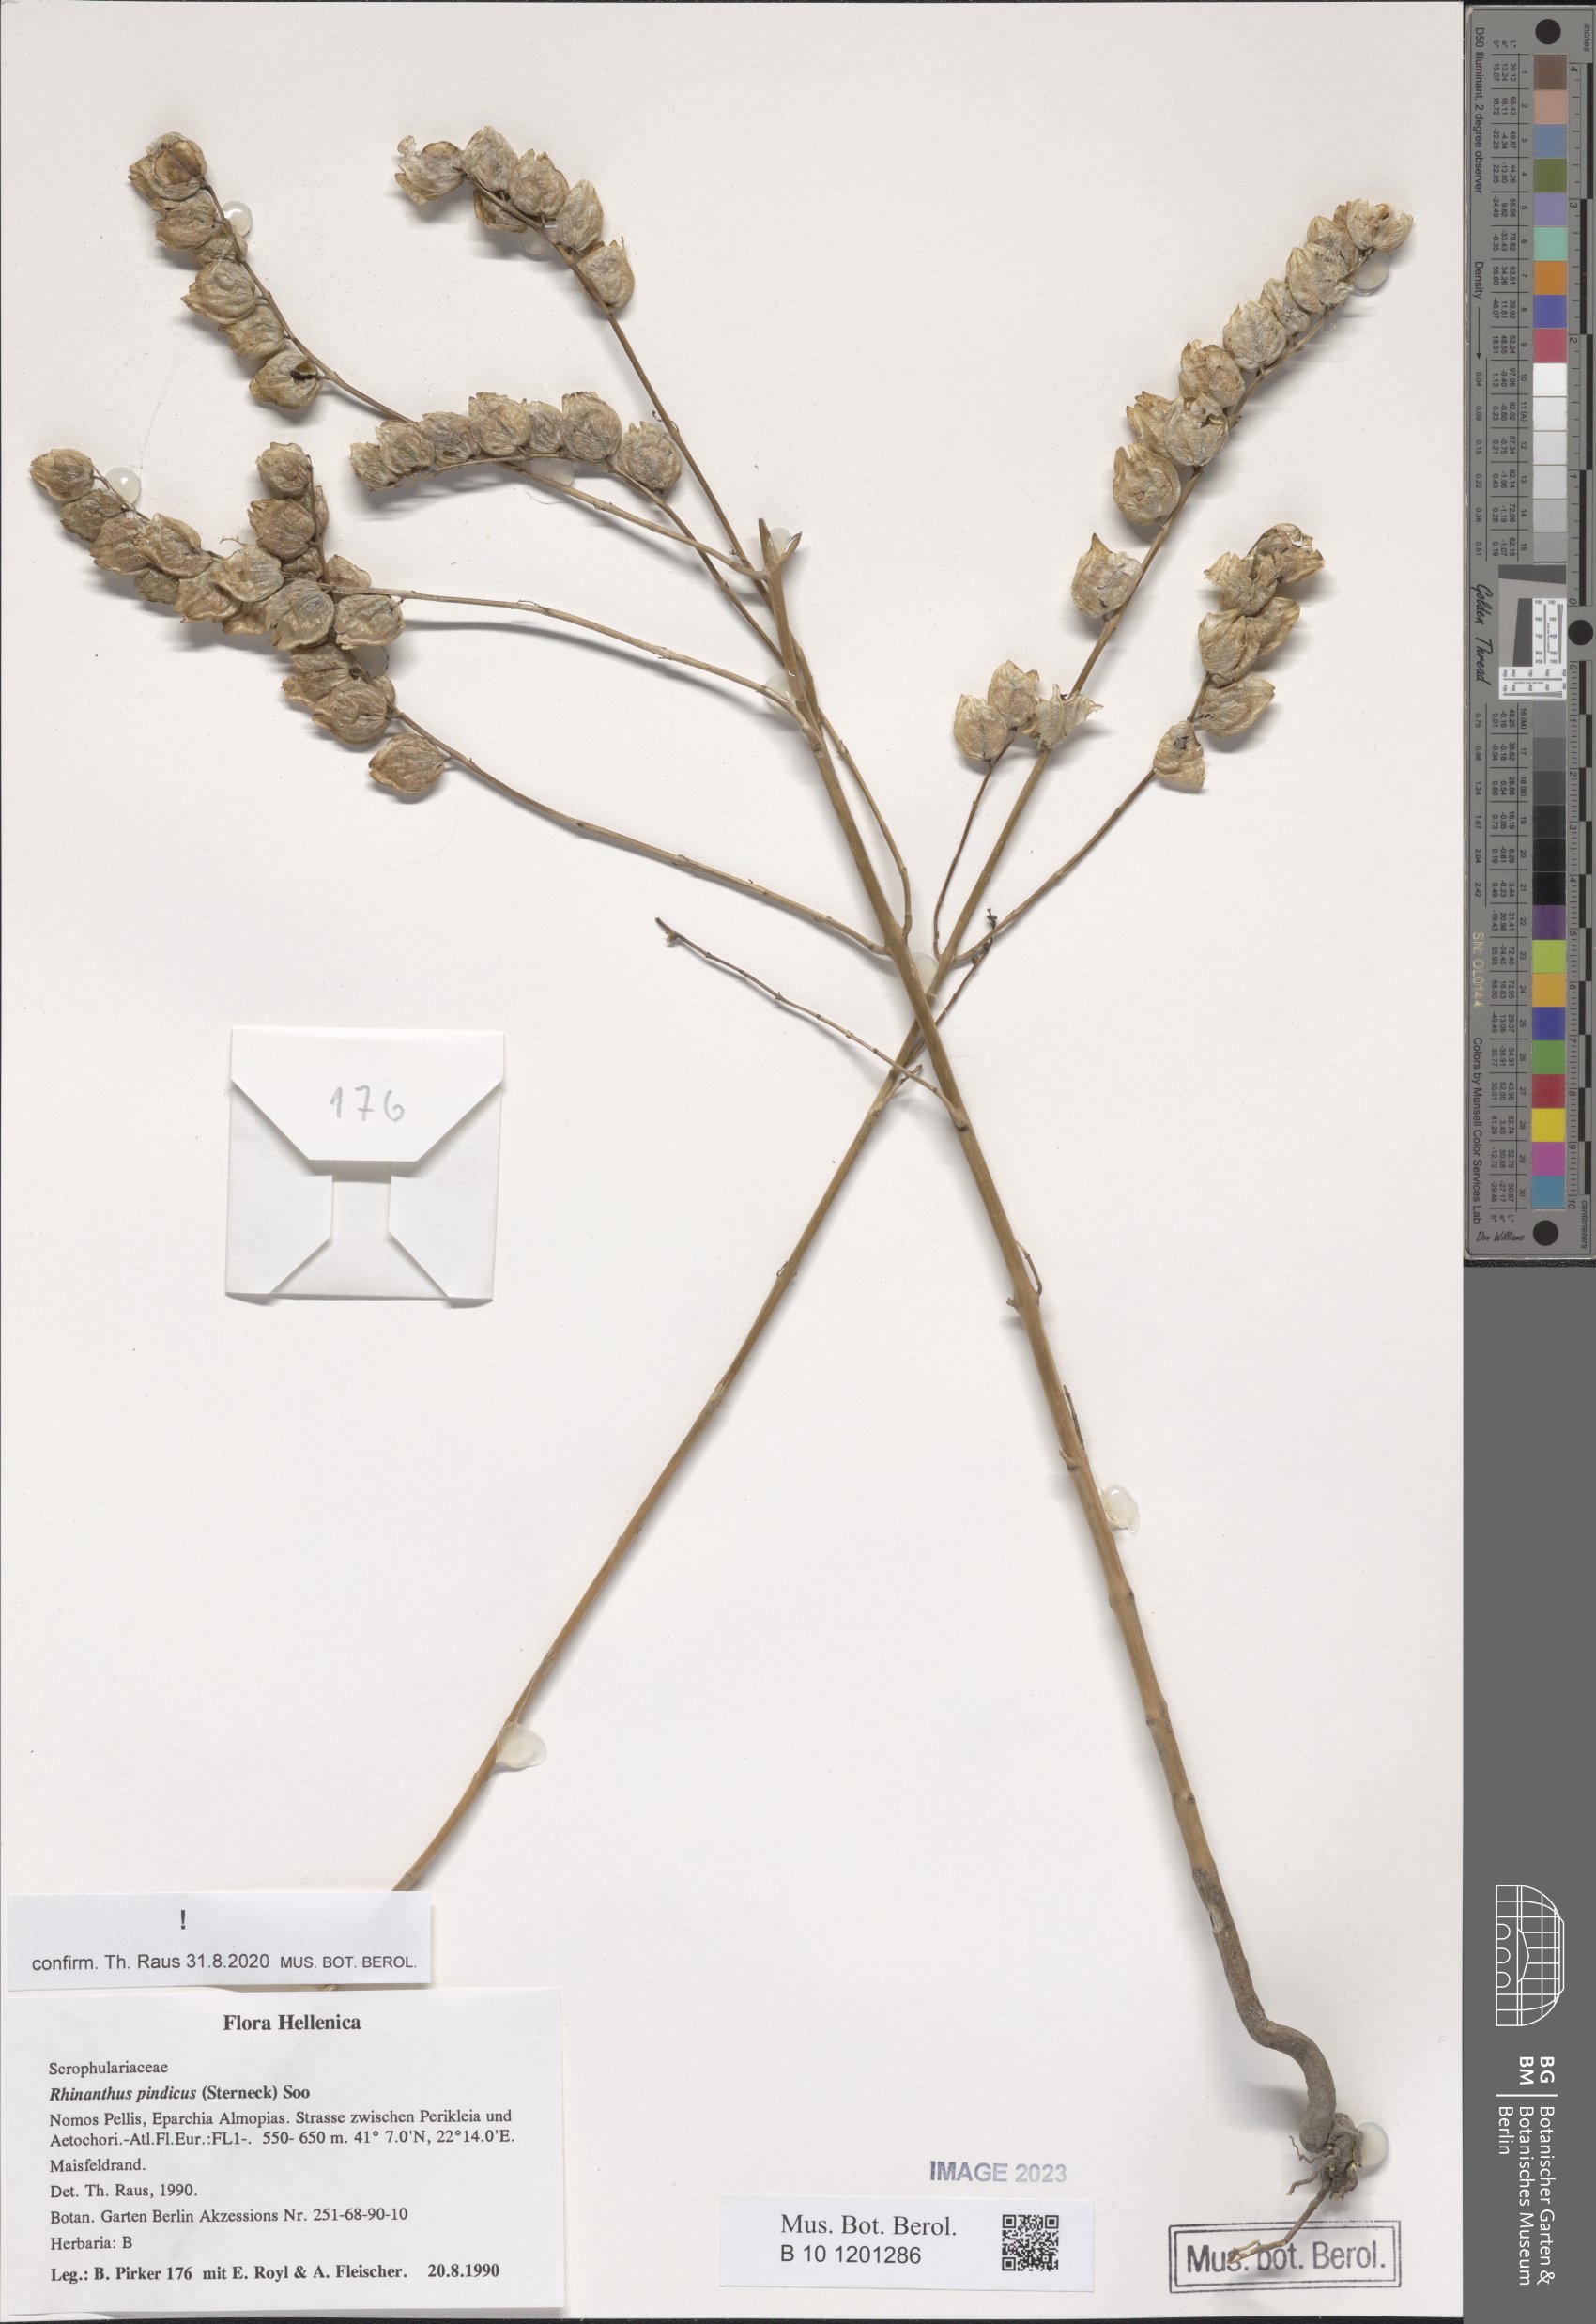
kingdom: Plantae
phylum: Tracheophyta
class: Magnoliopsida
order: Lamiales
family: Orobanchaceae
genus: Rhinanthus
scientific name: Rhinanthus pindicus
